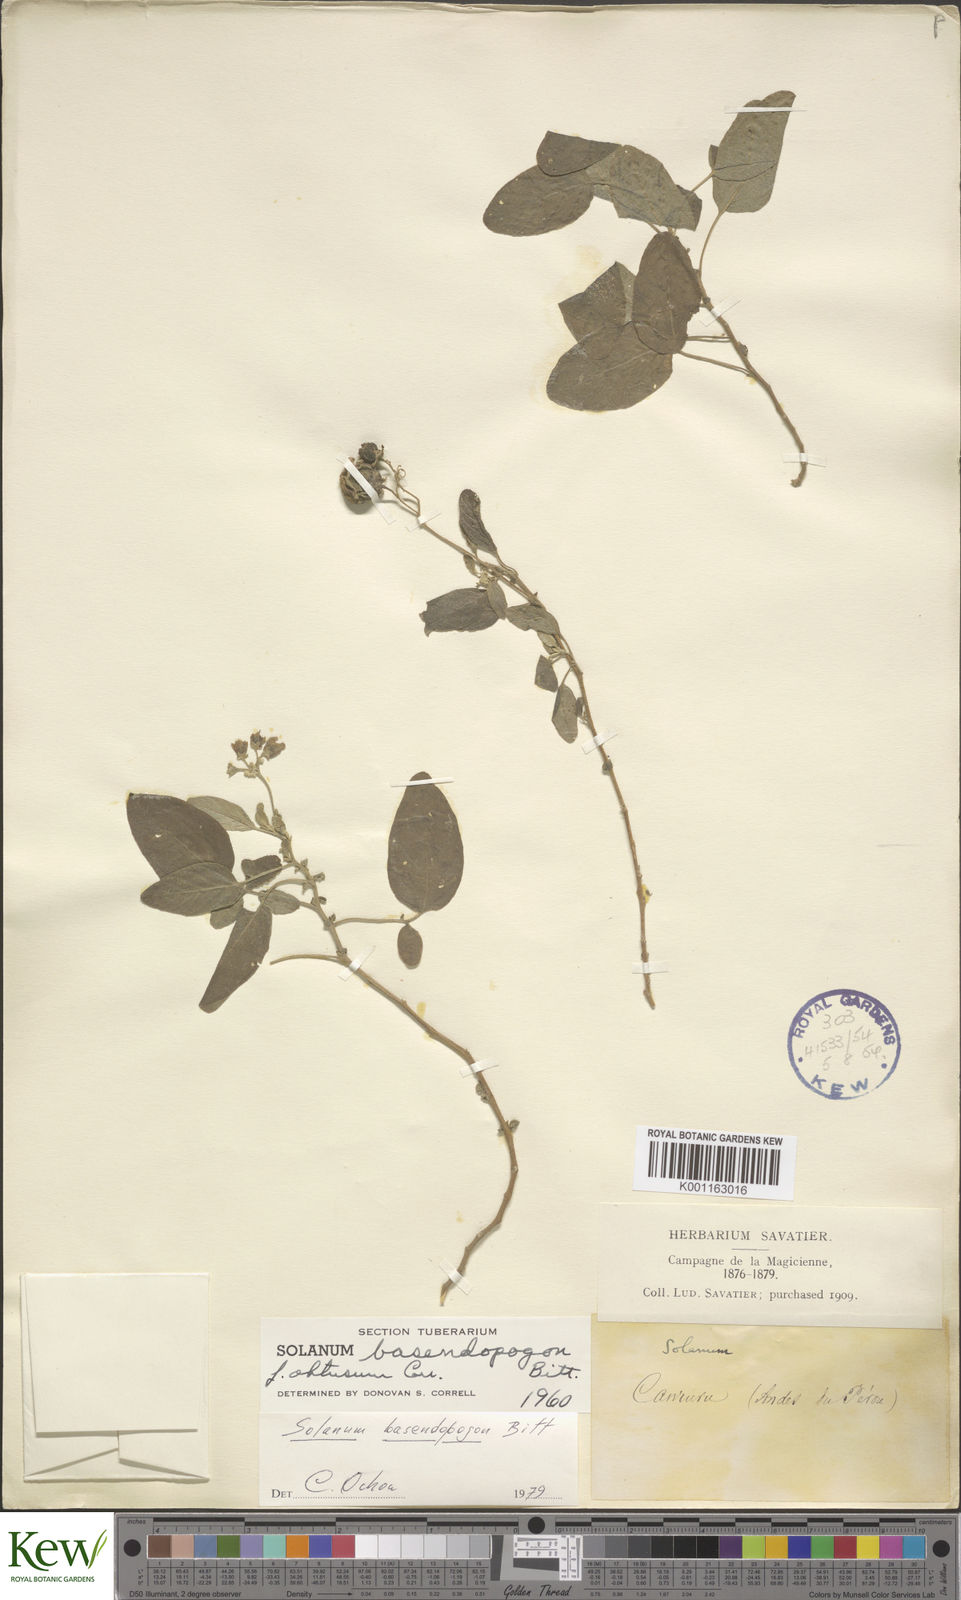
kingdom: Plantae
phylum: Tracheophyta
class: Magnoliopsida
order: Solanales
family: Solanaceae
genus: Solanum
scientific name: Solanum basendopogon
